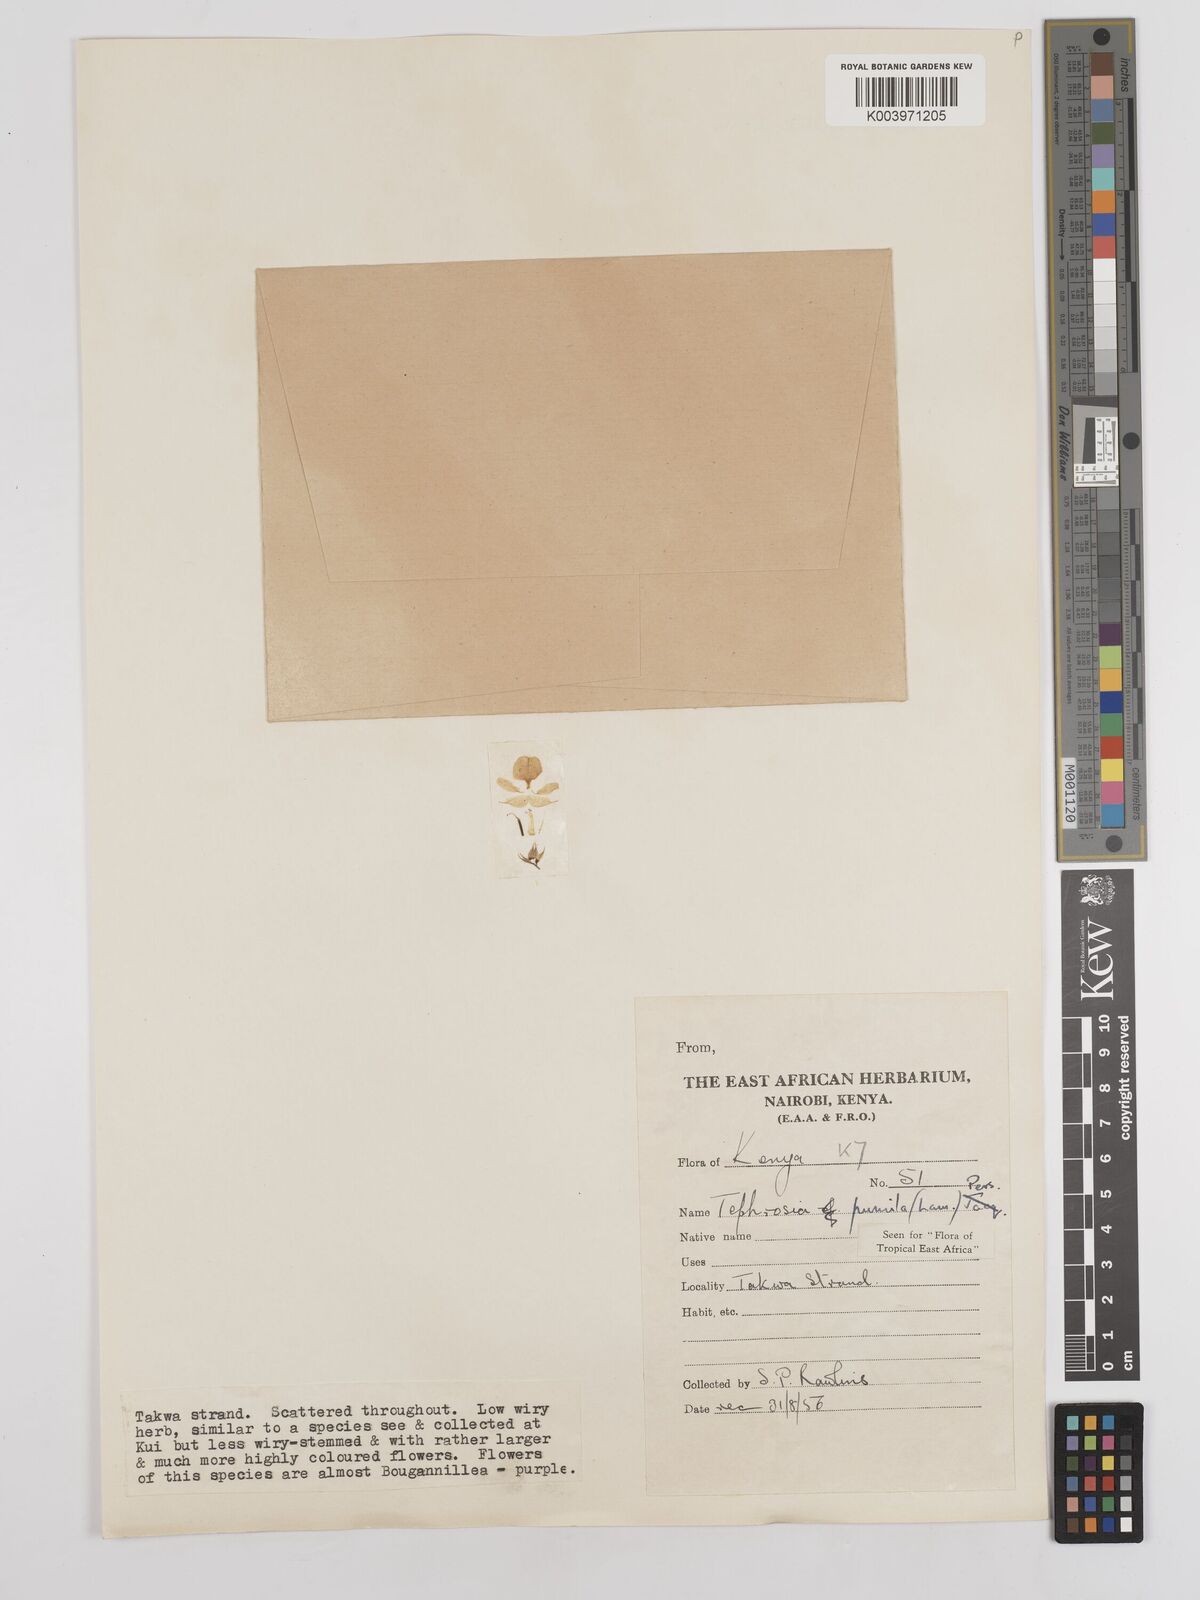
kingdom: Plantae
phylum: Tracheophyta
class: Magnoliopsida
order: Fabales
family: Fabaceae
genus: Tephrosia
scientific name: Tephrosia pumila
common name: Indigo sauvage
